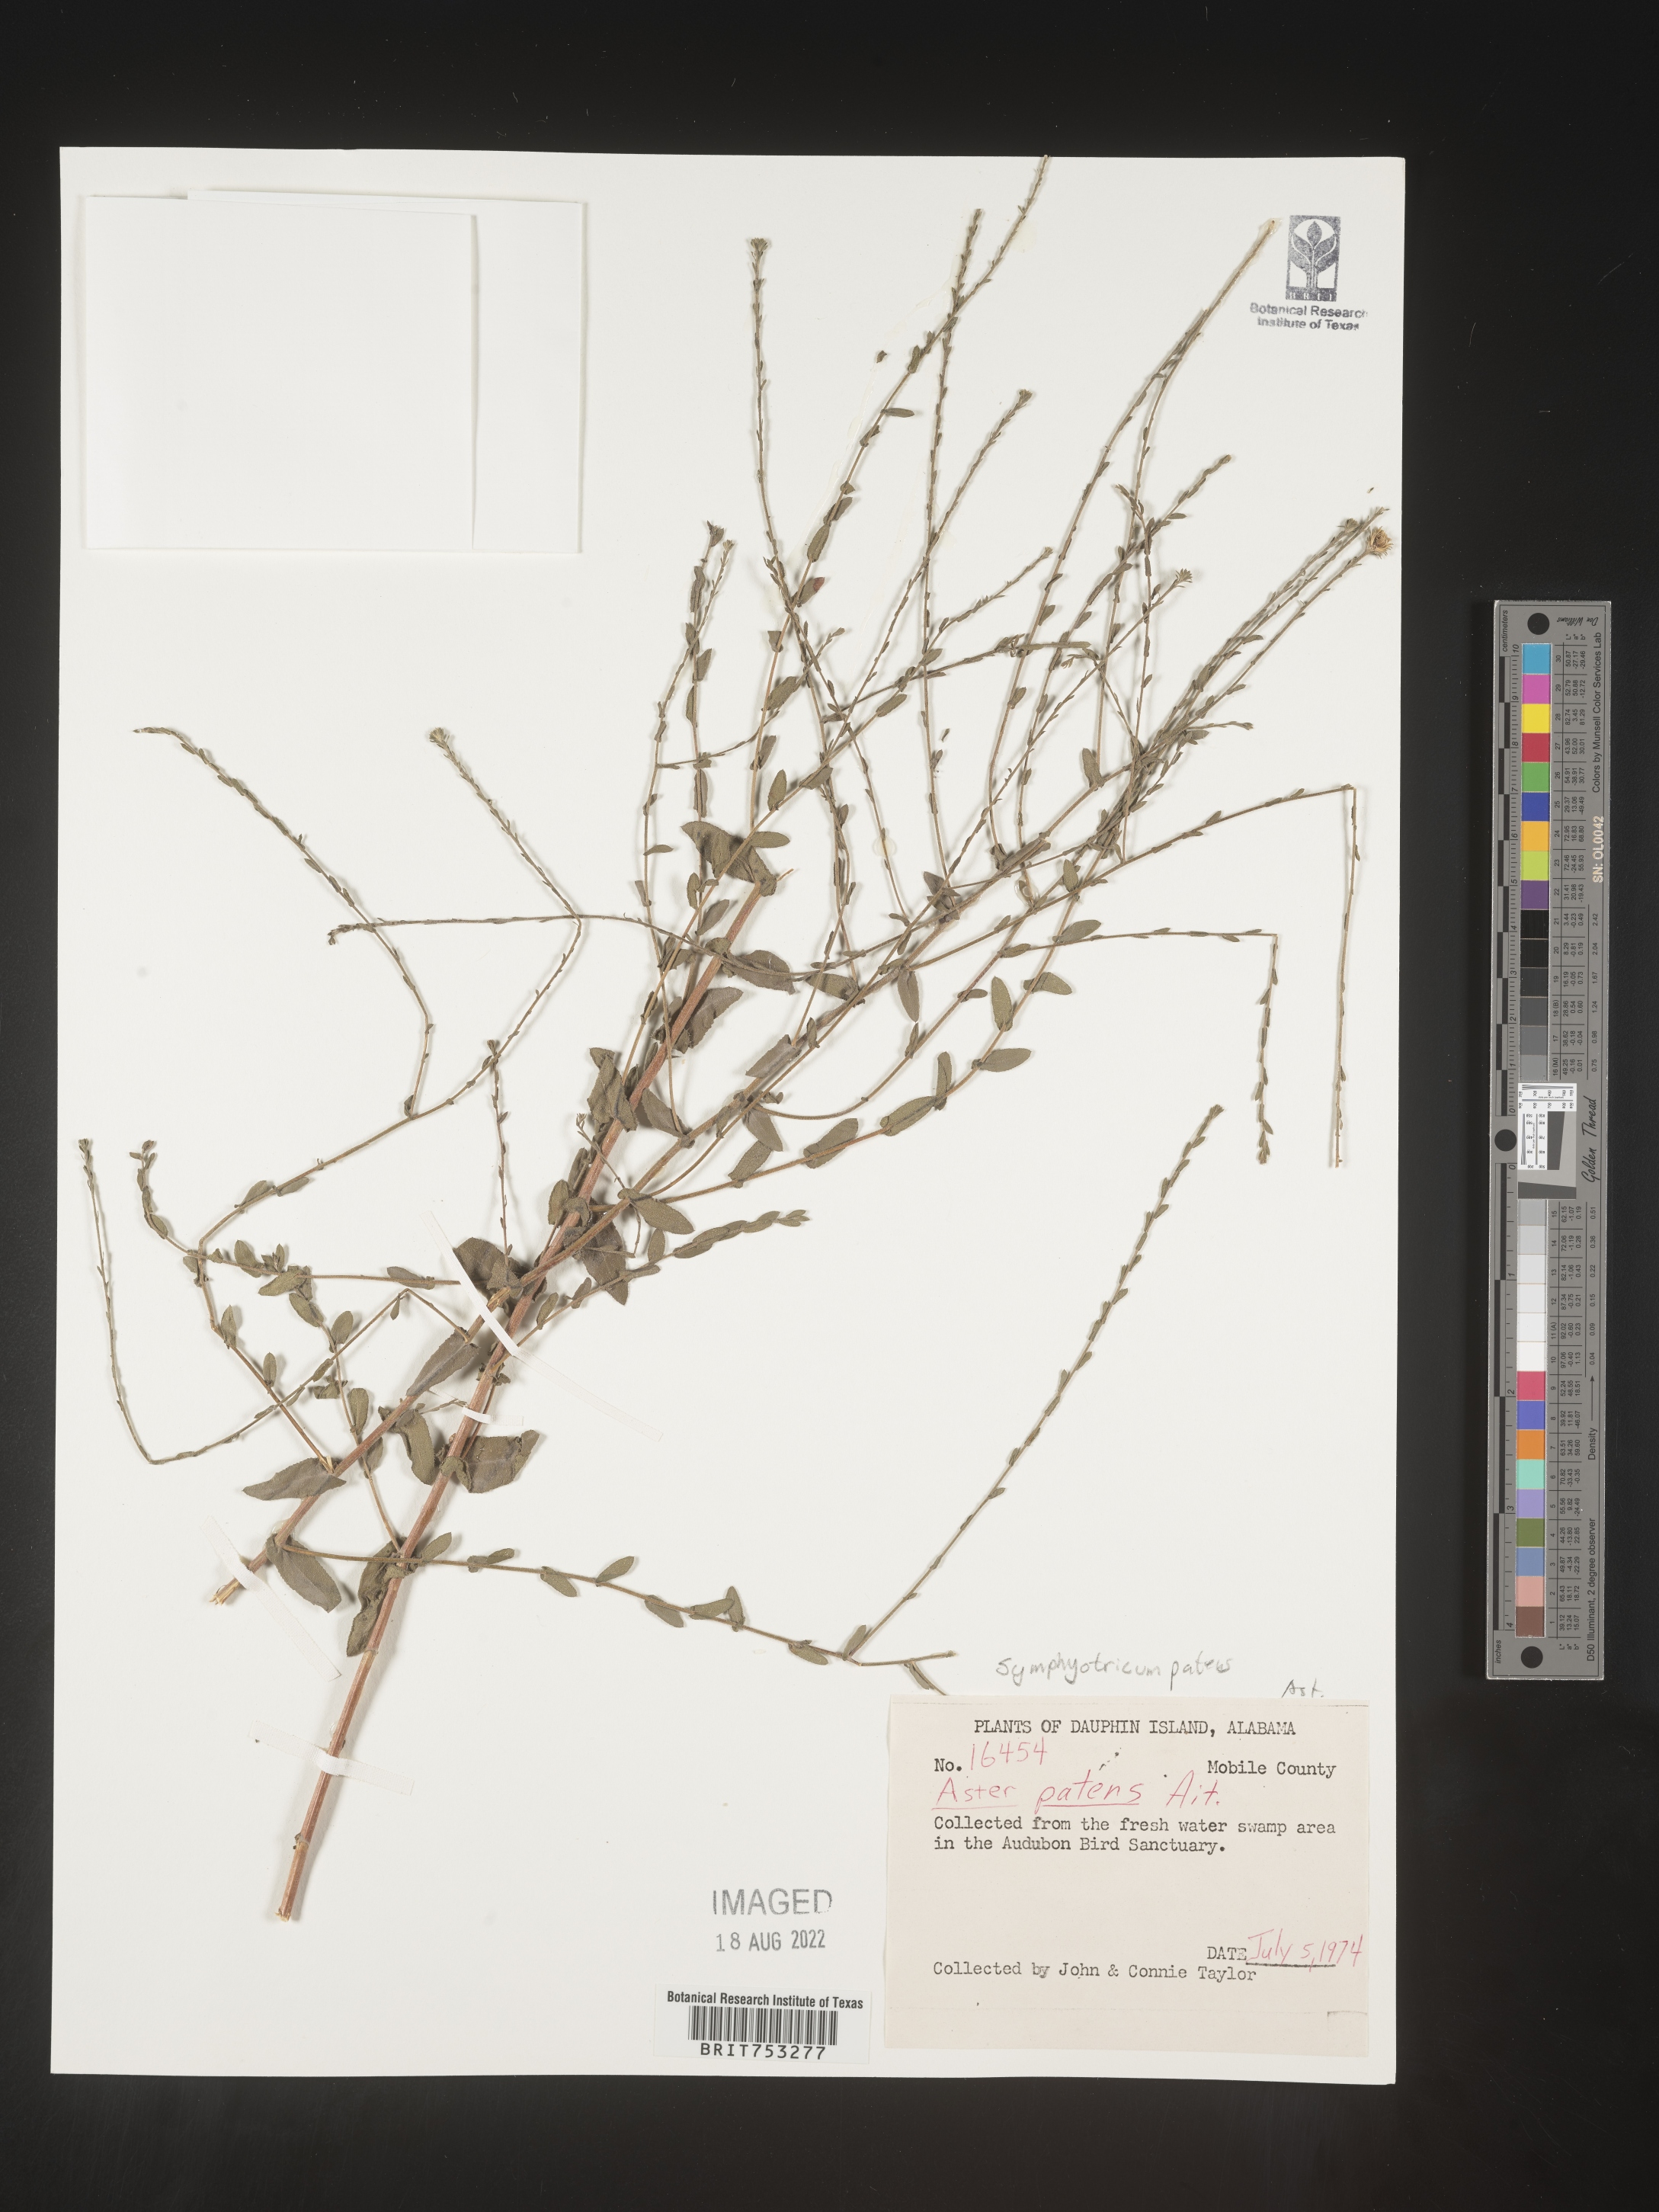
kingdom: Plantae
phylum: Tracheophyta
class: Magnoliopsida
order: Asterales
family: Asteraceae
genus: Symphyotrichum
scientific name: Symphyotrichum patens
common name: Late purple aster
